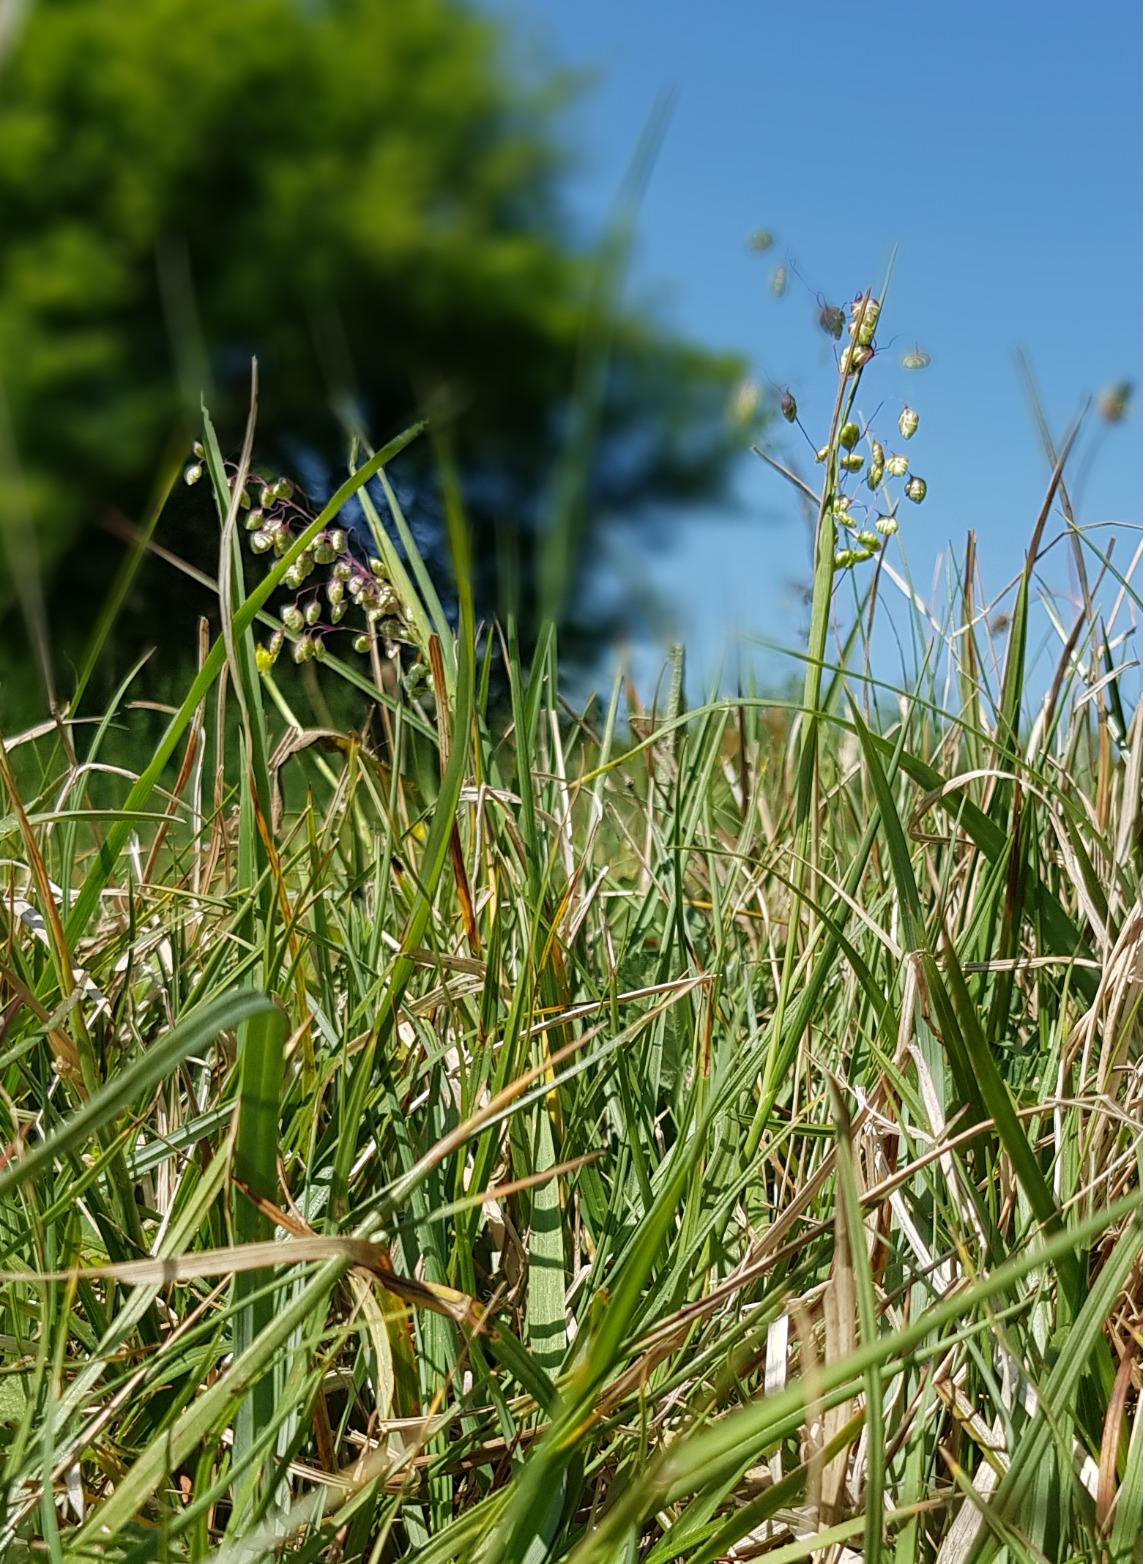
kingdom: Plantae
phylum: Tracheophyta
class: Liliopsida
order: Poales
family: Poaceae
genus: Briza
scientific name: Briza media
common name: Hjertegræs
